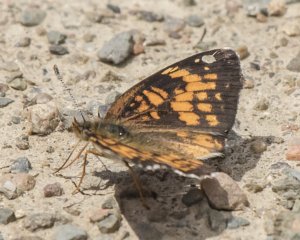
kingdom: Animalia
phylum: Arthropoda
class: Insecta
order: Lepidoptera
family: Nymphalidae
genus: Phyciodes
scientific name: Phyciodes tharos
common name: Northern Crescent
